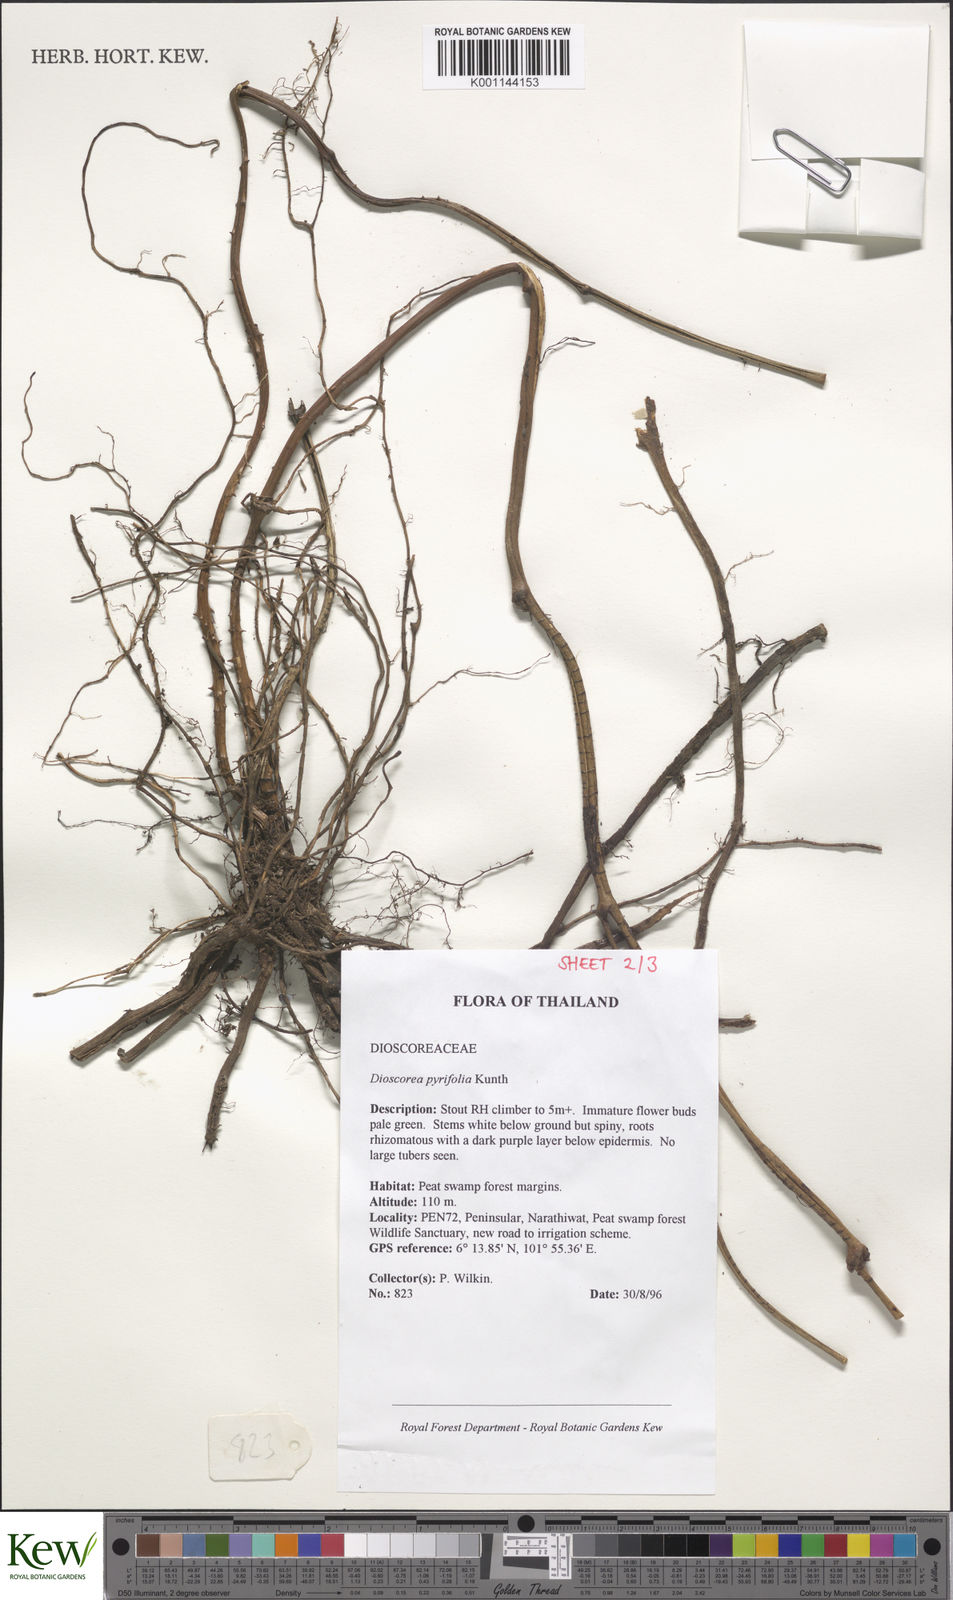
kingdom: Plantae
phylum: Tracheophyta
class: Liliopsida
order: Dioscoreales
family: Dioscoreaceae
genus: Dioscorea
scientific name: Dioscorea pyrifolia
